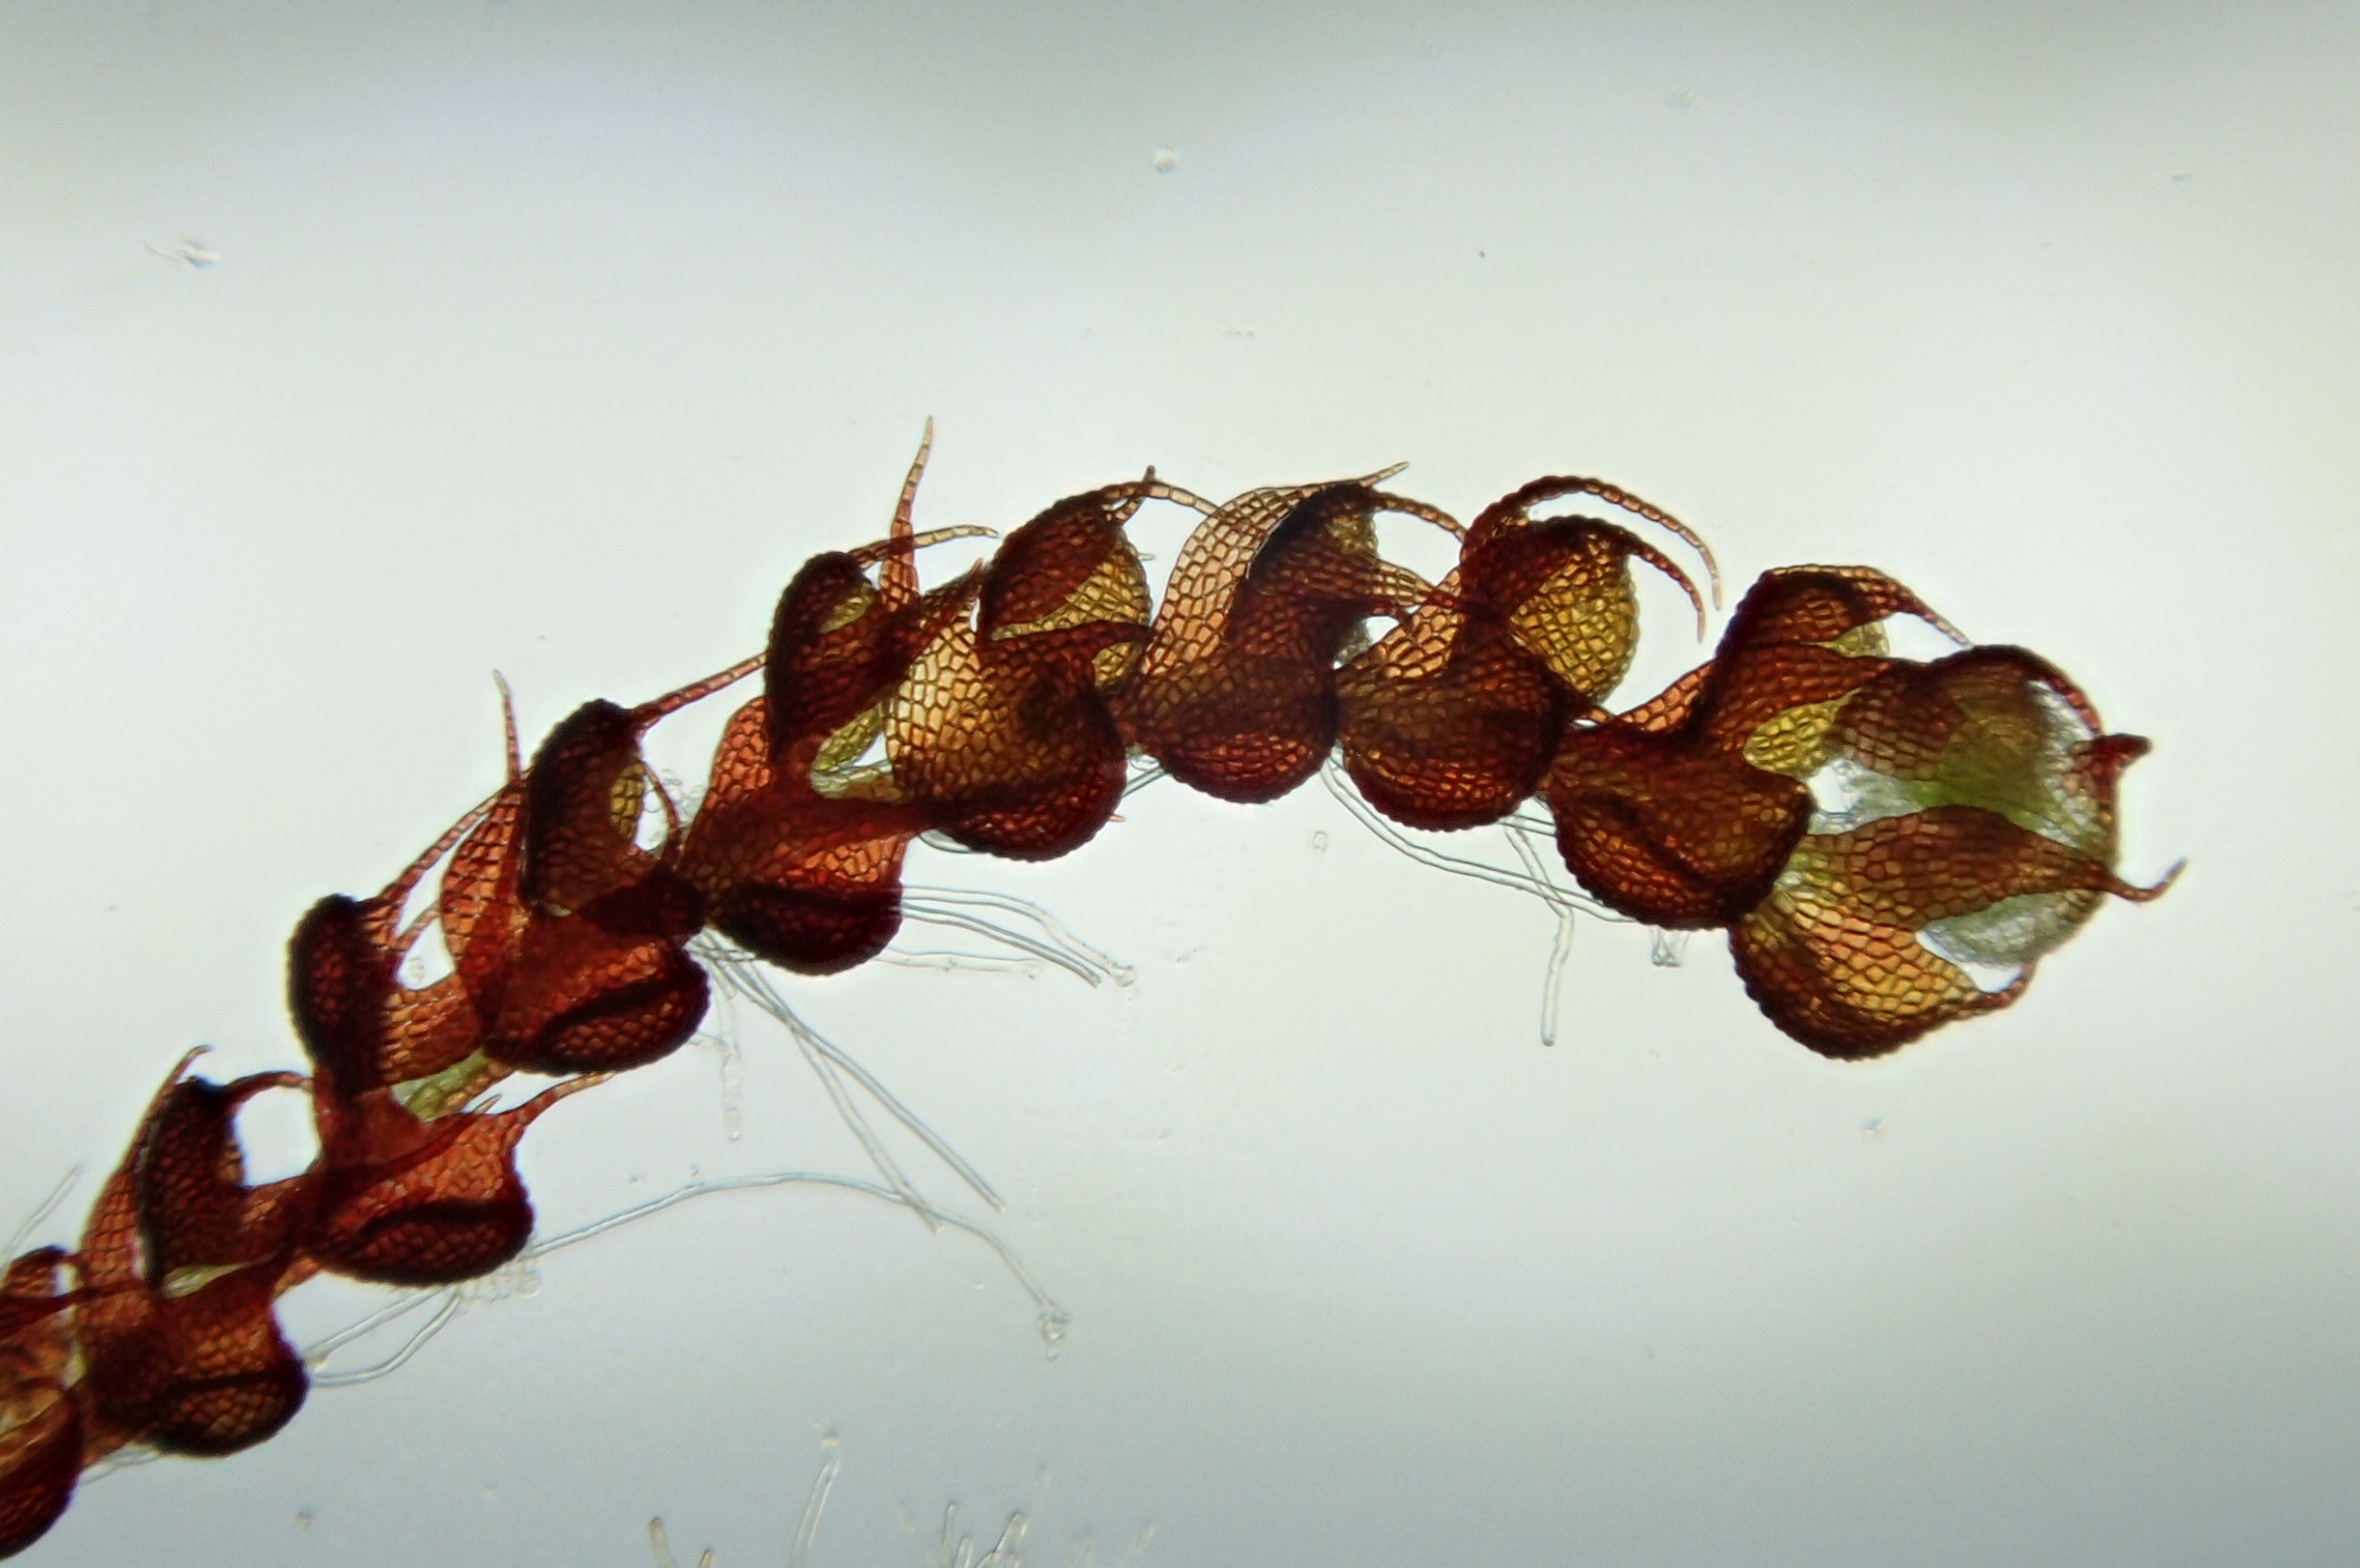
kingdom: Plantae
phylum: Marchantiophyta
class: Jungermanniopsida
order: Jungermanniales
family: Cephaloziaceae
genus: Nowellia
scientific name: Nowellia curvifolia
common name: Krumbladet stødmos
